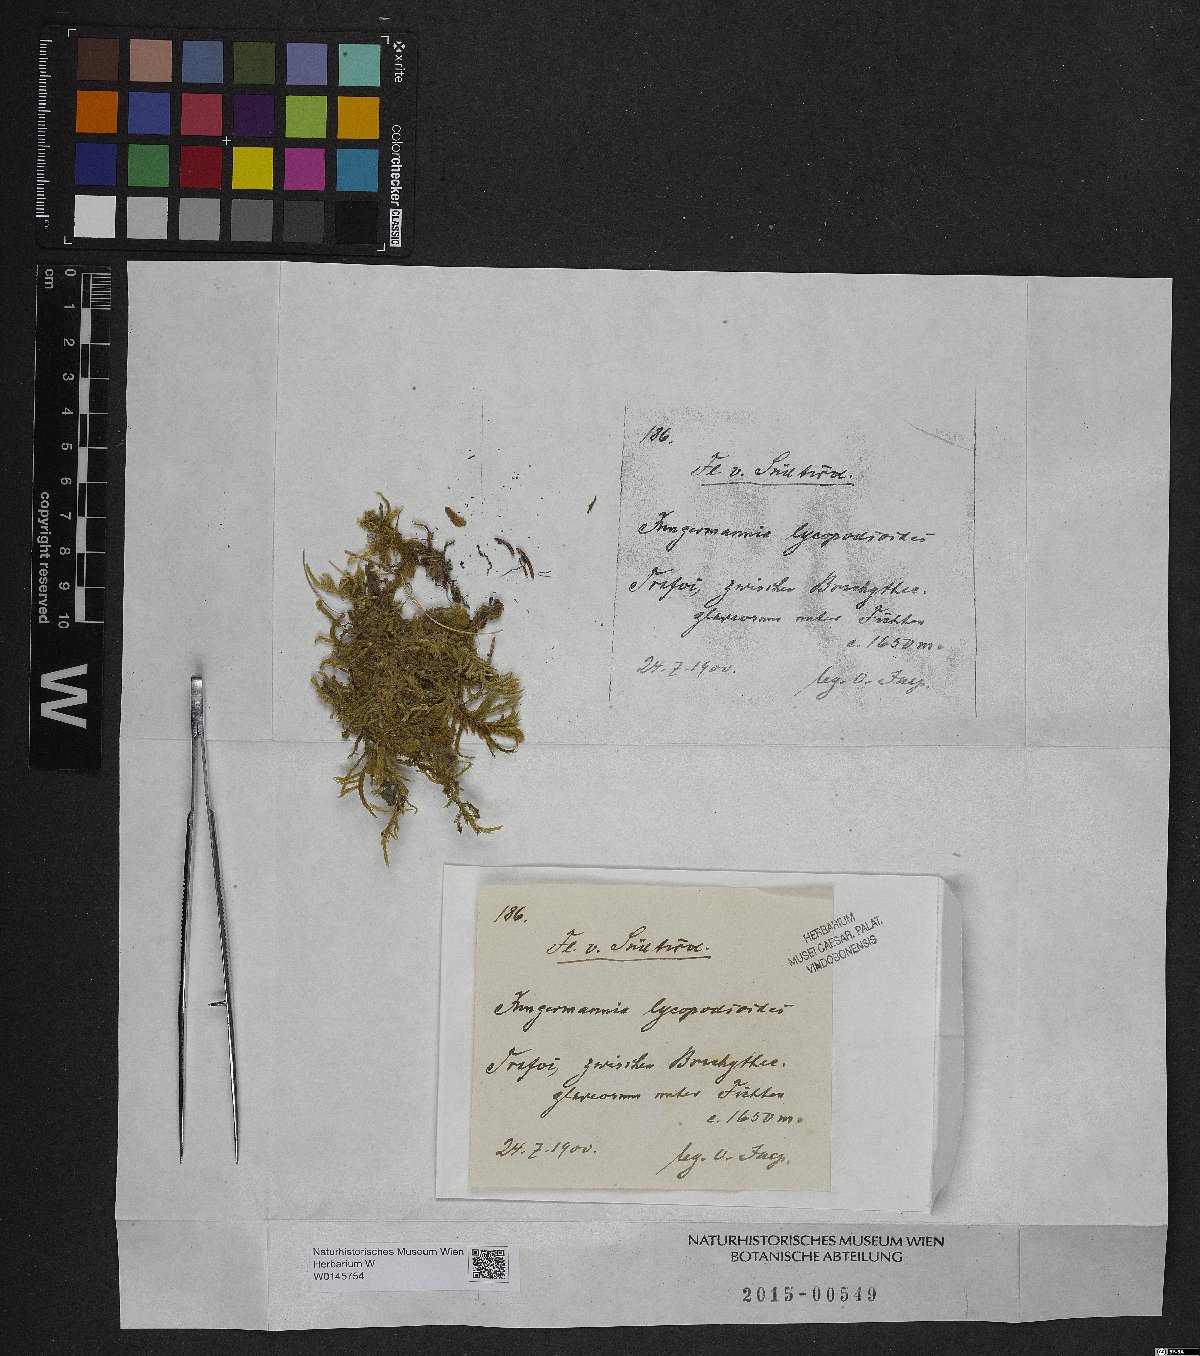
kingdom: Plantae
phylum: Marchantiophyta
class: Jungermanniopsida
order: Jungermanniales
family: Anastrophyllaceae
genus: Barbilophozia
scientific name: Barbilophozia lycopodioides
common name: Greater pawwort
